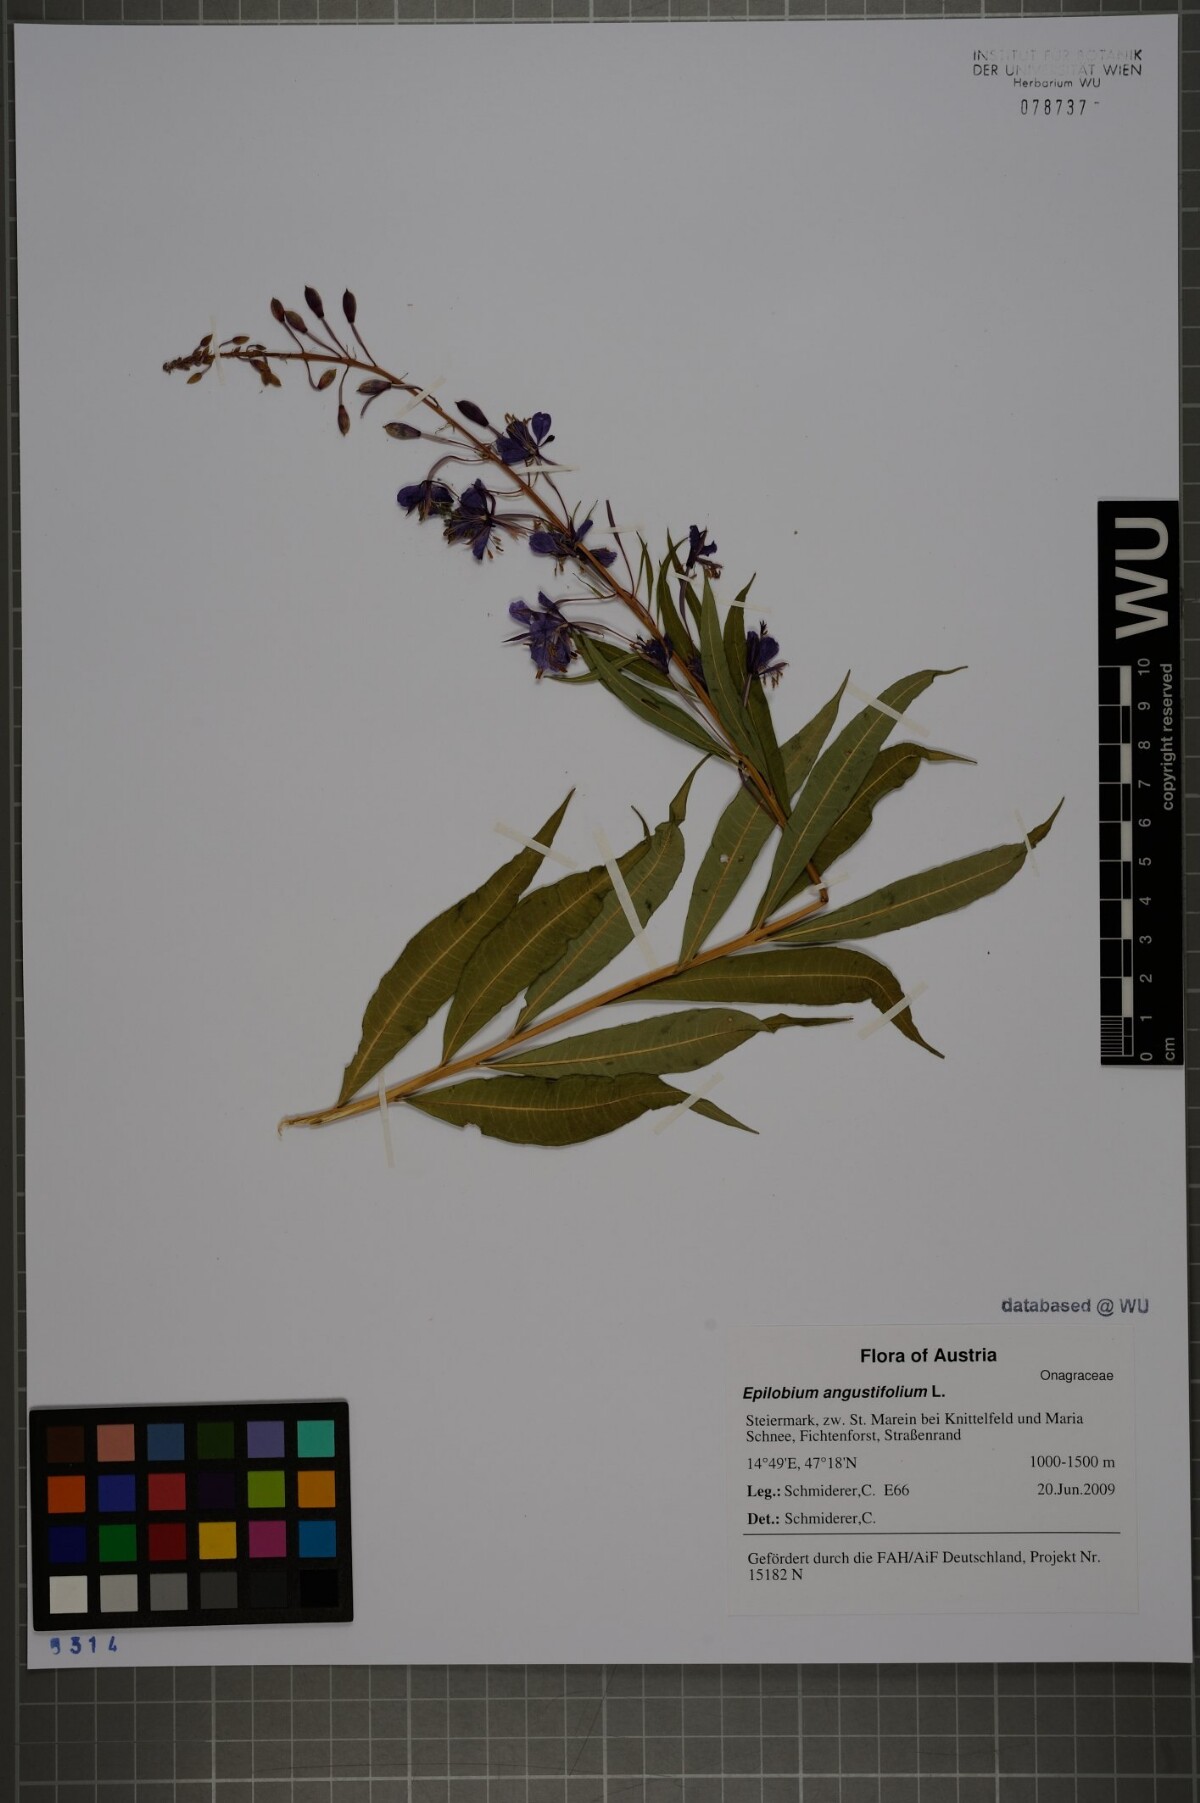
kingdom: Plantae
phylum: Tracheophyta
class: Magnoliopsida
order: Myrtales
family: Onagraceae
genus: Chamaenerion
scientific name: Chamaenerion angustifolium
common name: Fireweed
